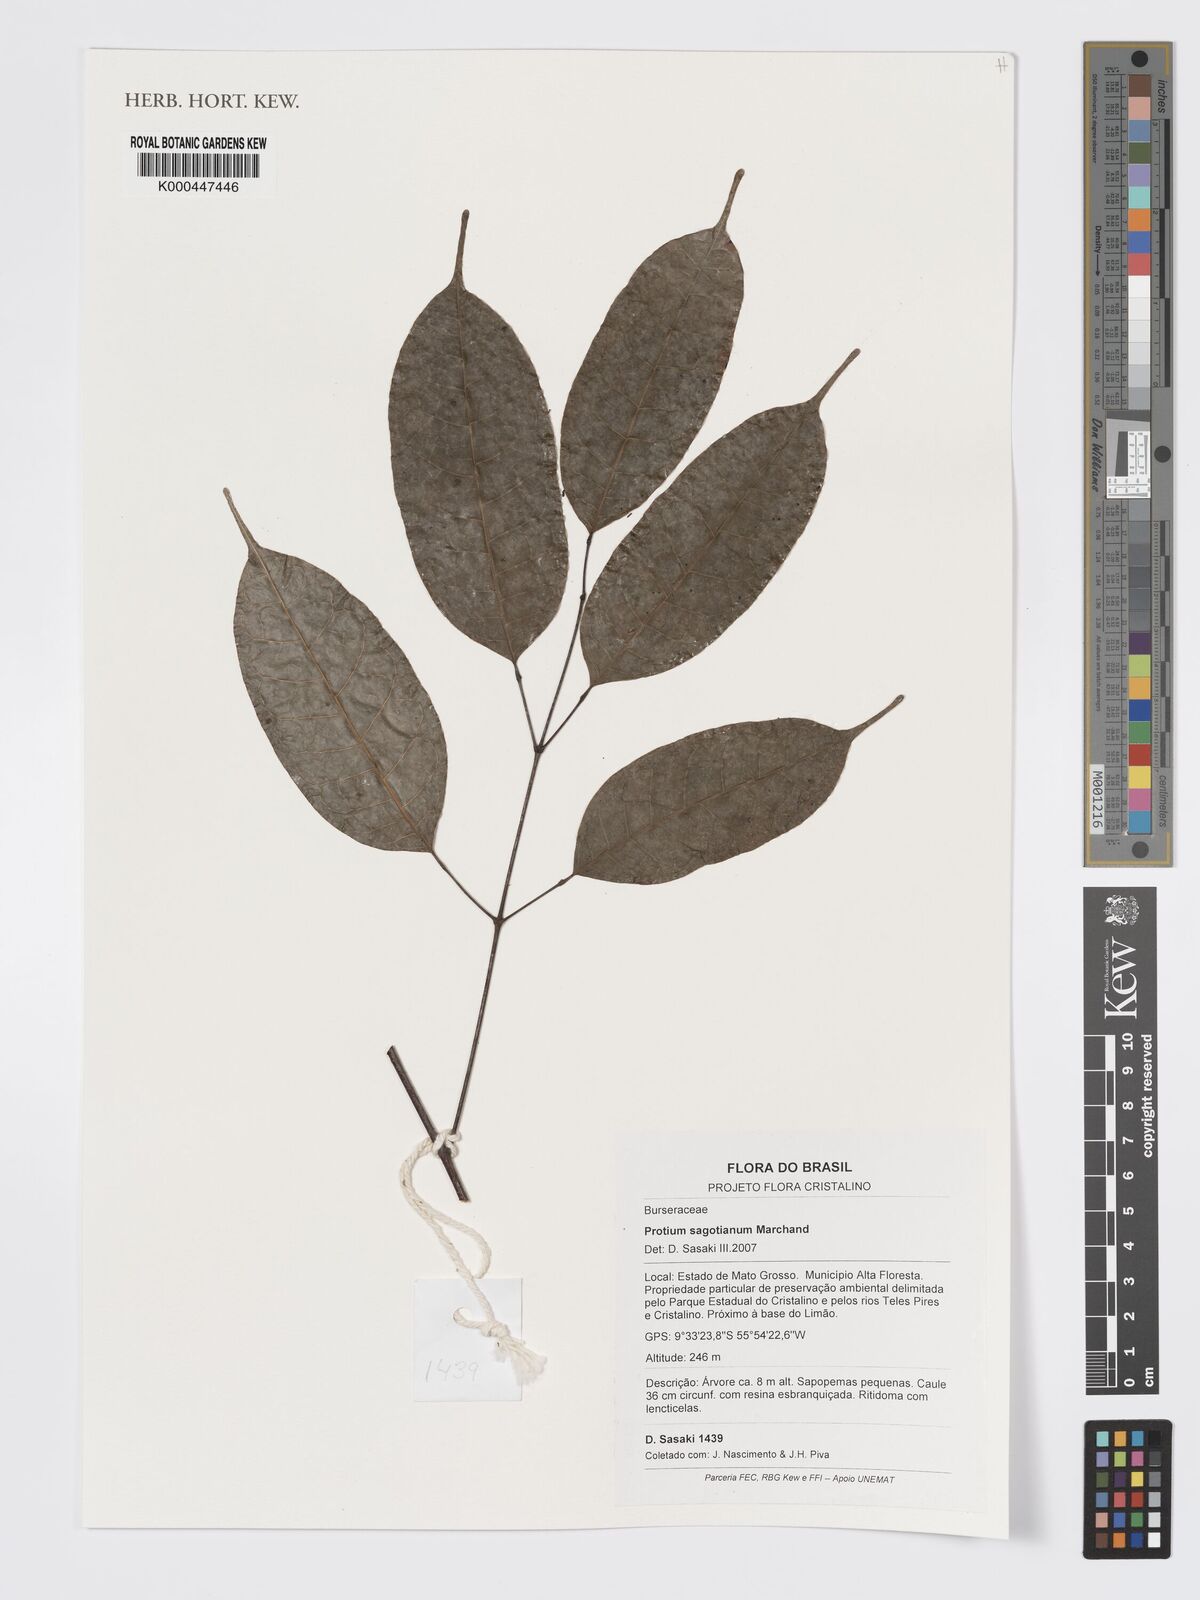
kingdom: Plantae
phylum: Tracheophyta
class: Magnoliopsida
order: Sapindales
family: Burseraceae
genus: Protium
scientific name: Protium sagotianum
